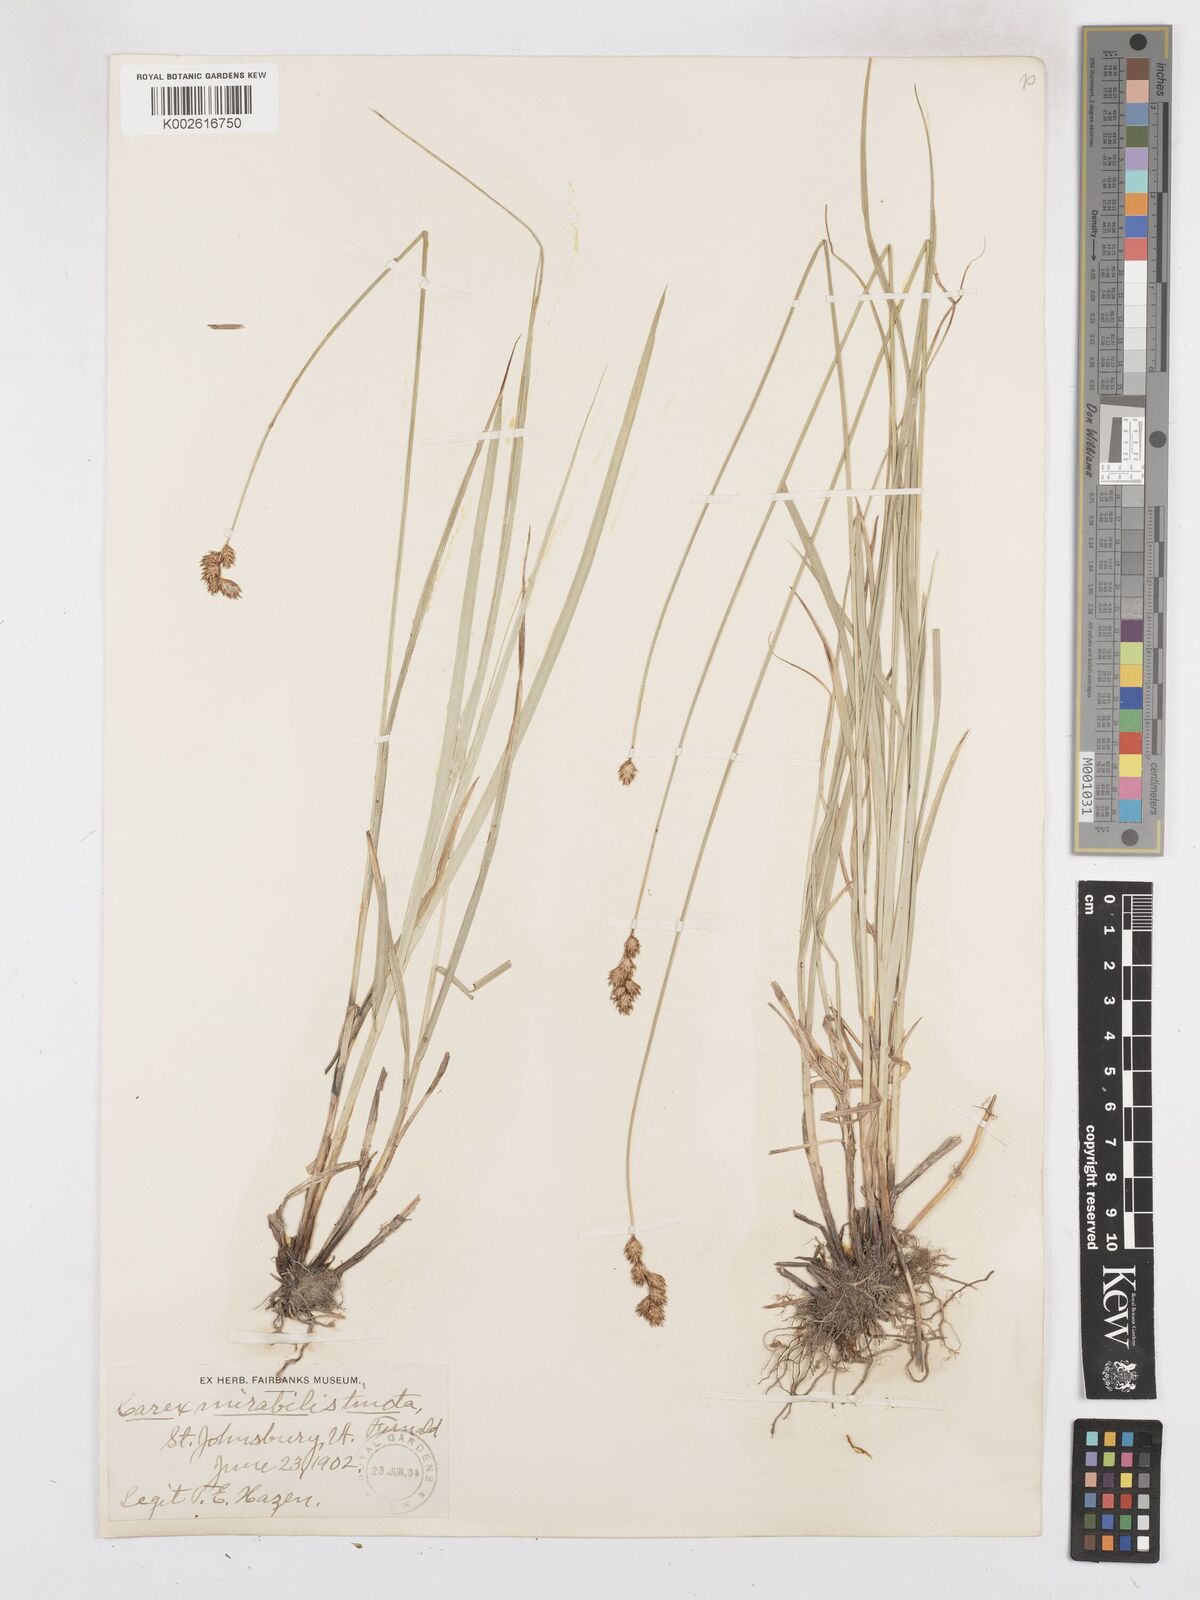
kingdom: Plantae
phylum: Tracheophyta
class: Liliopsida
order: Poales
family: Cyperaceae
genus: Carex
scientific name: Carex argyrantha
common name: Silvery-flowered sedge
